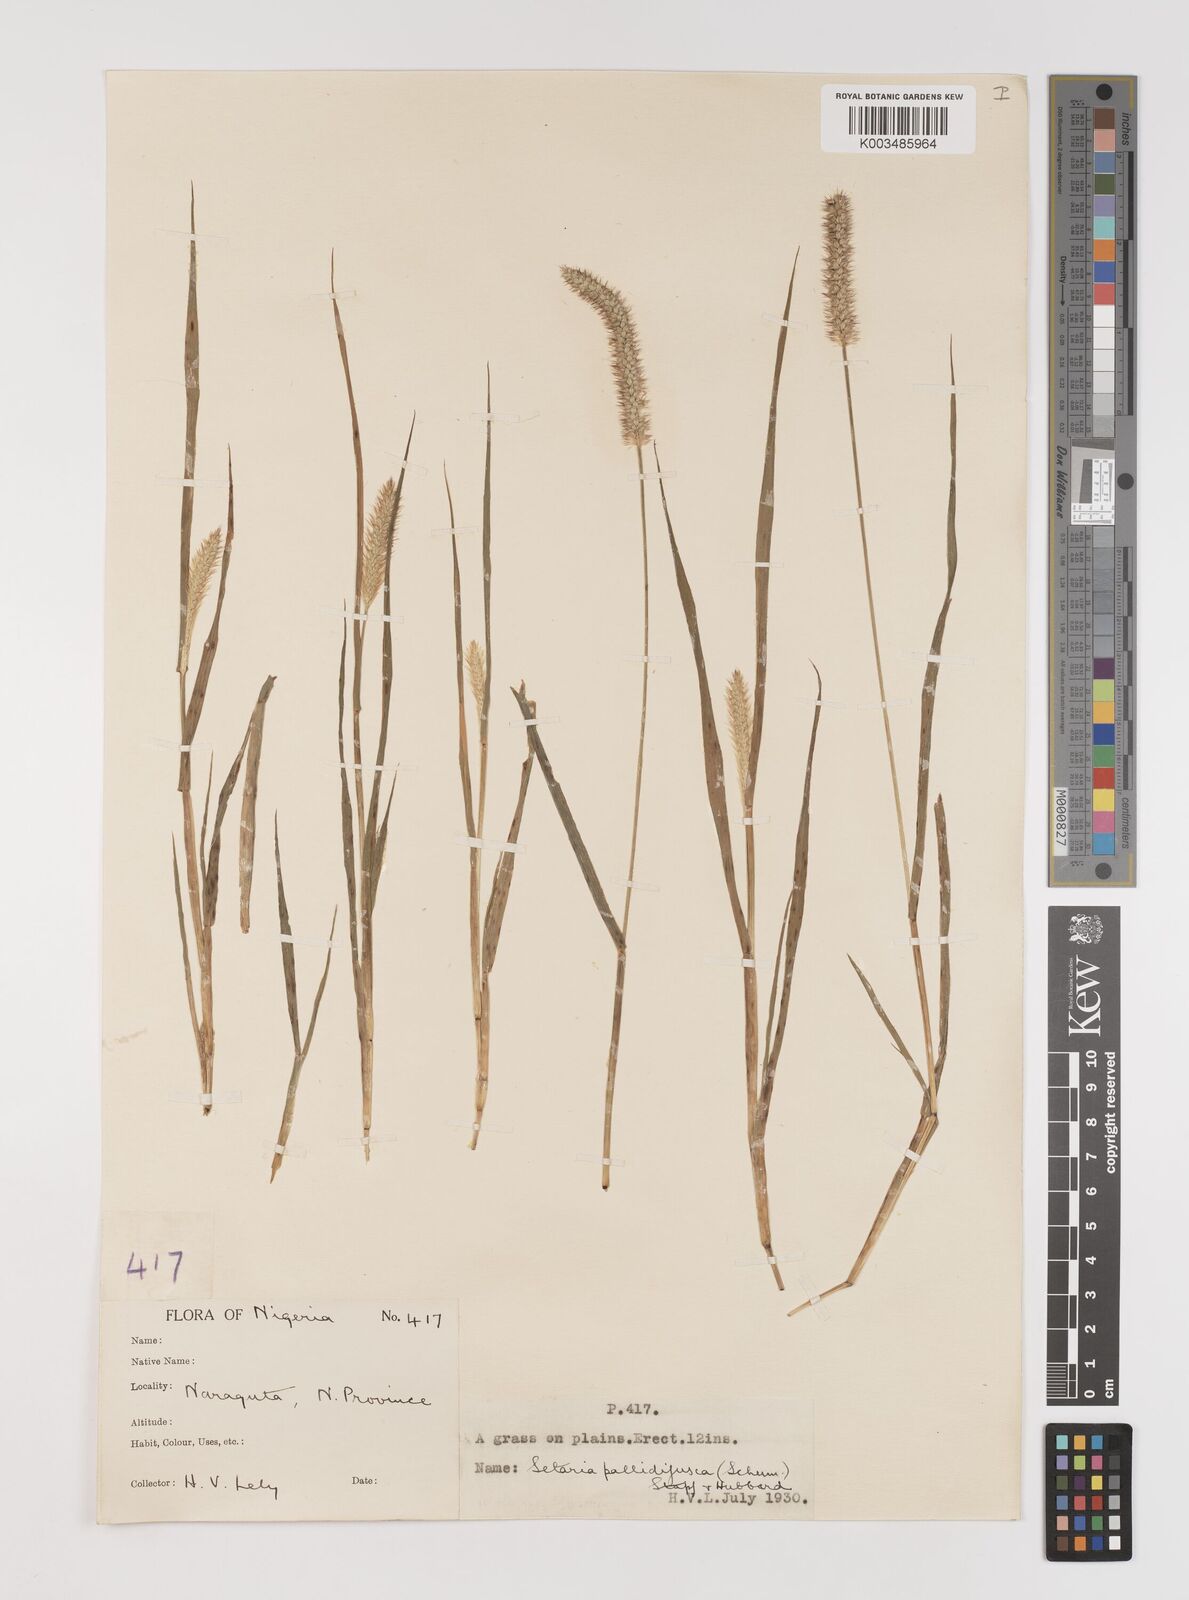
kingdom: Plantae
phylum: Tracheophyta
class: Liliopsida
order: Poales
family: Poaceae
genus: Setaria
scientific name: Setaria pumila
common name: Yellow bristle-grass
